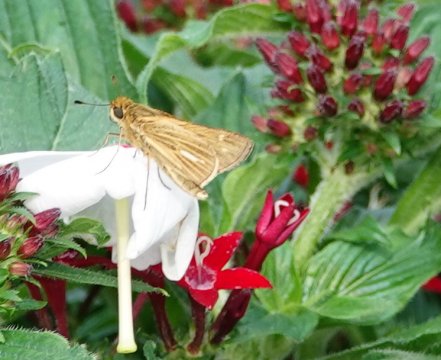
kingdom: Animalia
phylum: Arthropoda
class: Insecta
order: Lepidoptera
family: Hesperiidae
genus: Panoquina
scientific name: Panoquina panoquin
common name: Salt Marsh Skipper
